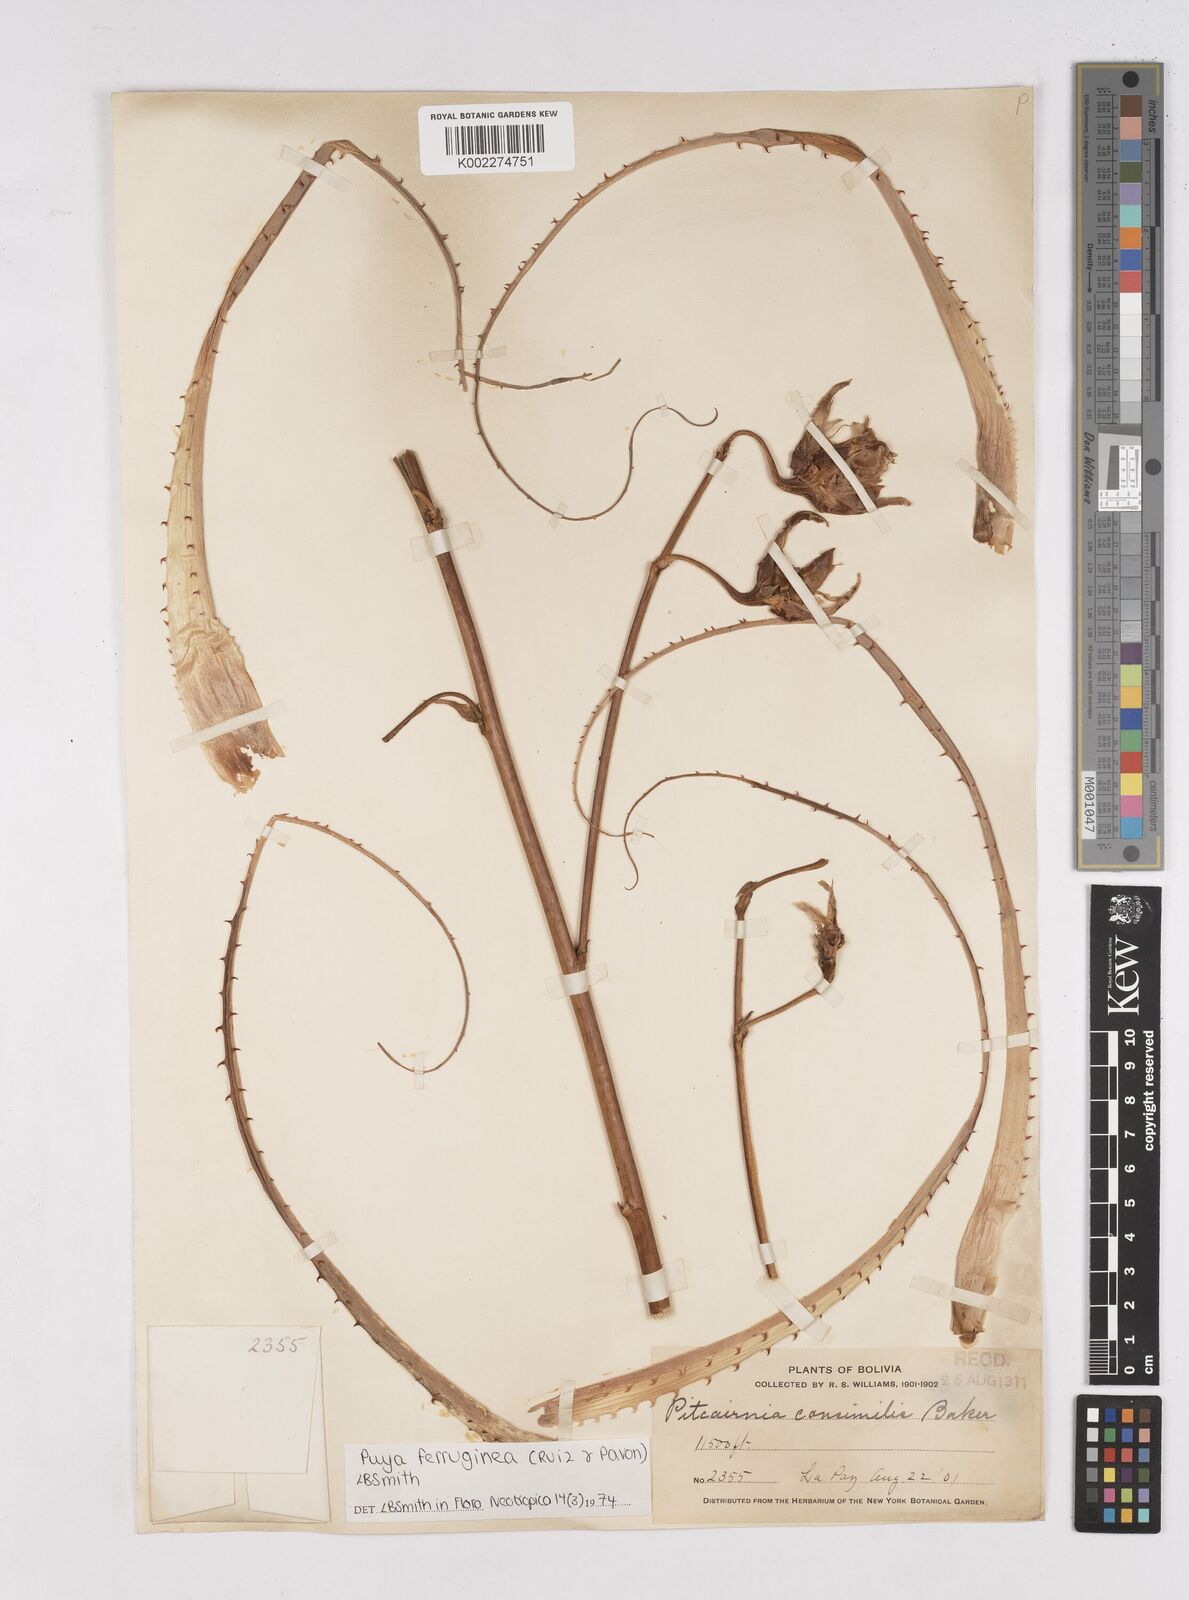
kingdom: Plantae
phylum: Tracheophyta
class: Liliopsida
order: Poales
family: Bromeliaceae
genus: Puya
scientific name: Puya ferruginea
